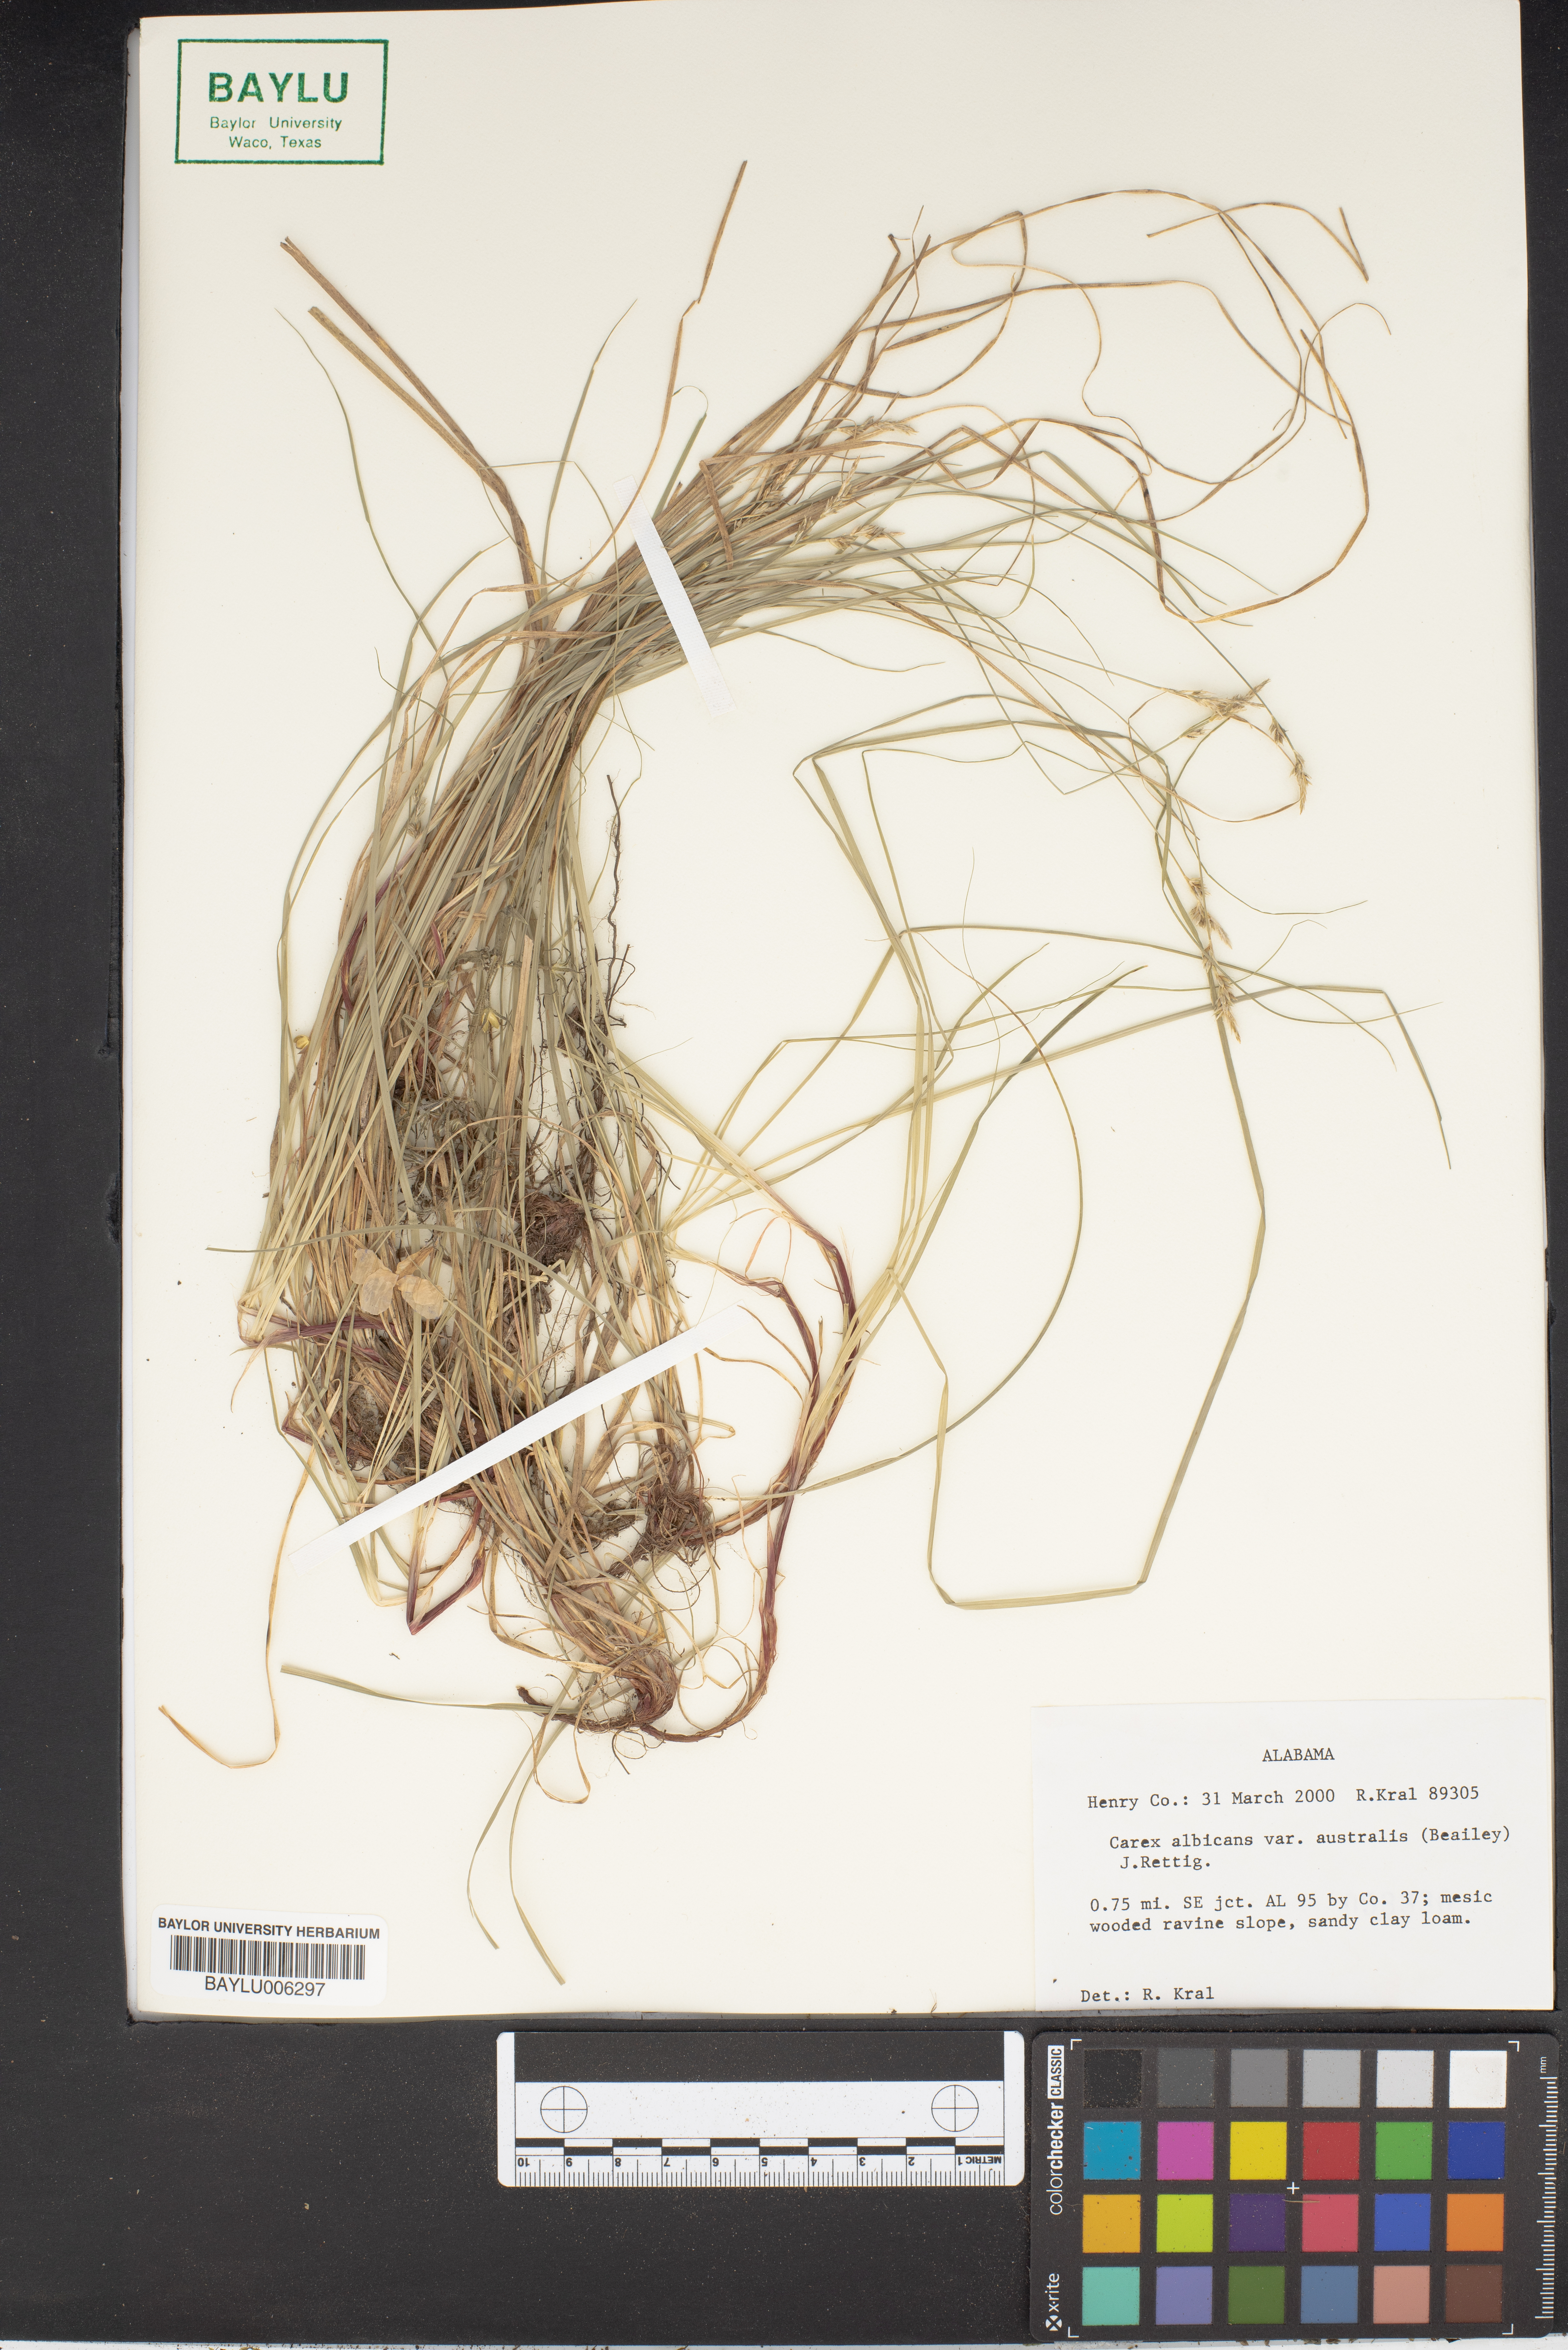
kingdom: Plantae
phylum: Tracheophyta
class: Liliopsida
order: Poales
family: Cyperaceae
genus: Carex
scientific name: Carex albicans
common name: Bellow-beaked sedge
